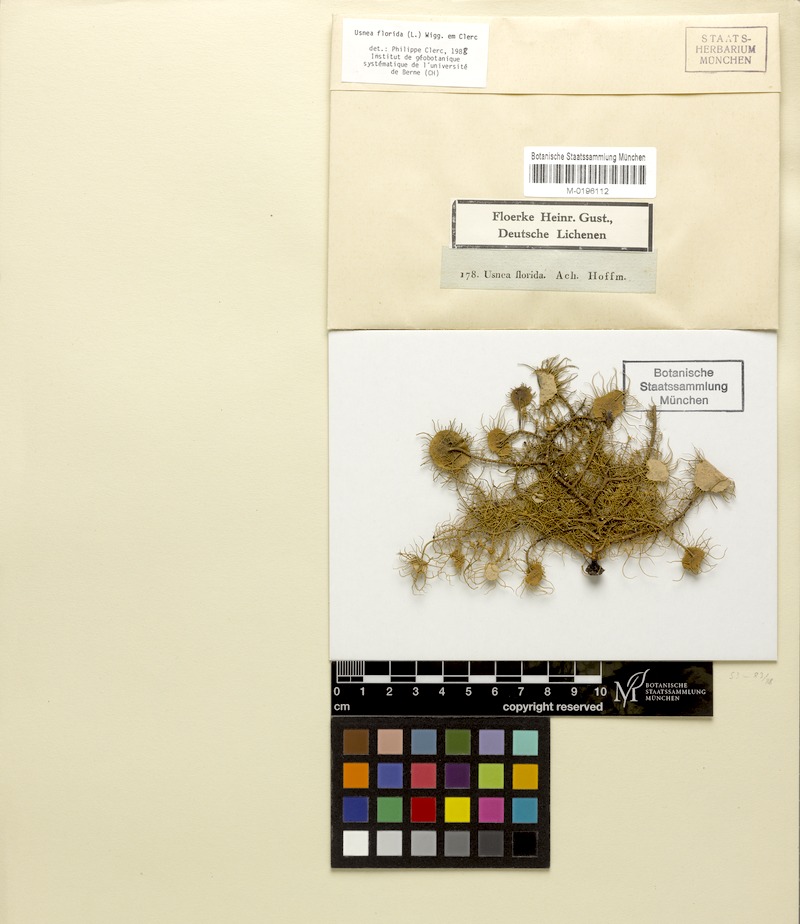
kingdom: Fungi
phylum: Ascomycota
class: Lecanoromycetes
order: Lecanorales
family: Parmeliaceae
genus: Usnea
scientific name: Usnea florida
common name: Witches' whiskers lichen
